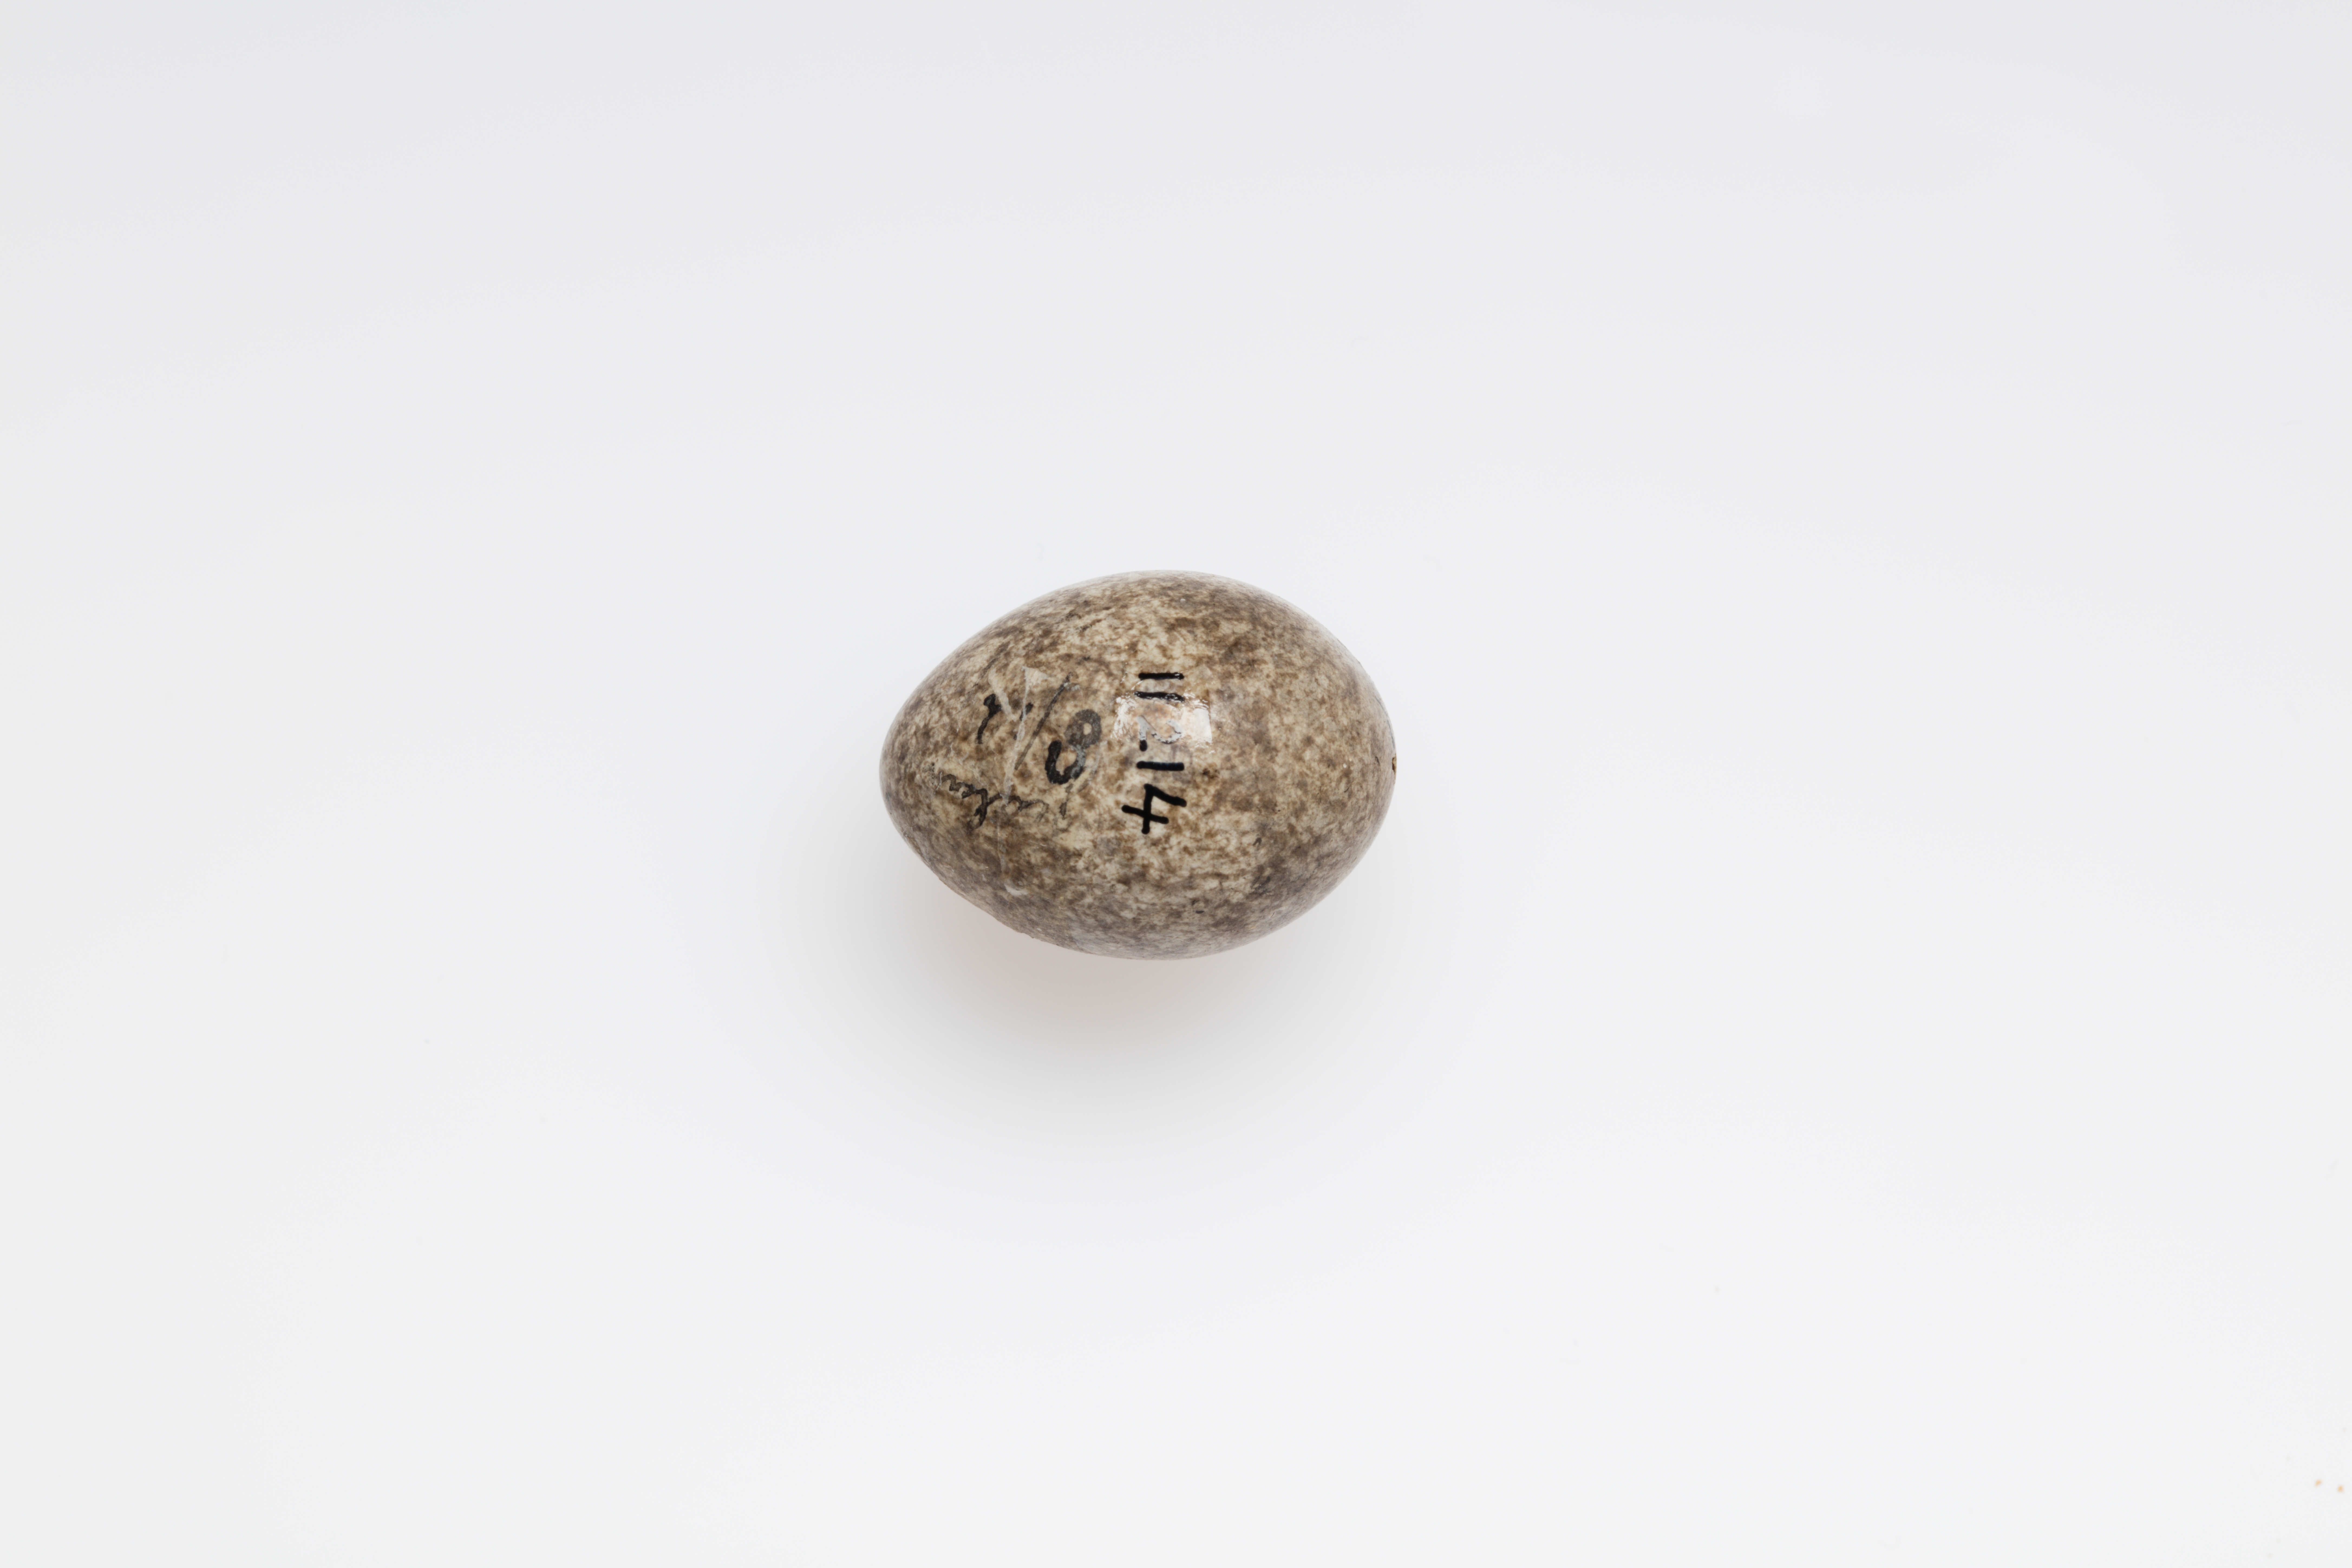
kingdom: Animalia
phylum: Chordata
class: Aves
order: Passeriformes
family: Motacillidae
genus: Anthus
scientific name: Anthus novaeseelandiae
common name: New zealand pipit
